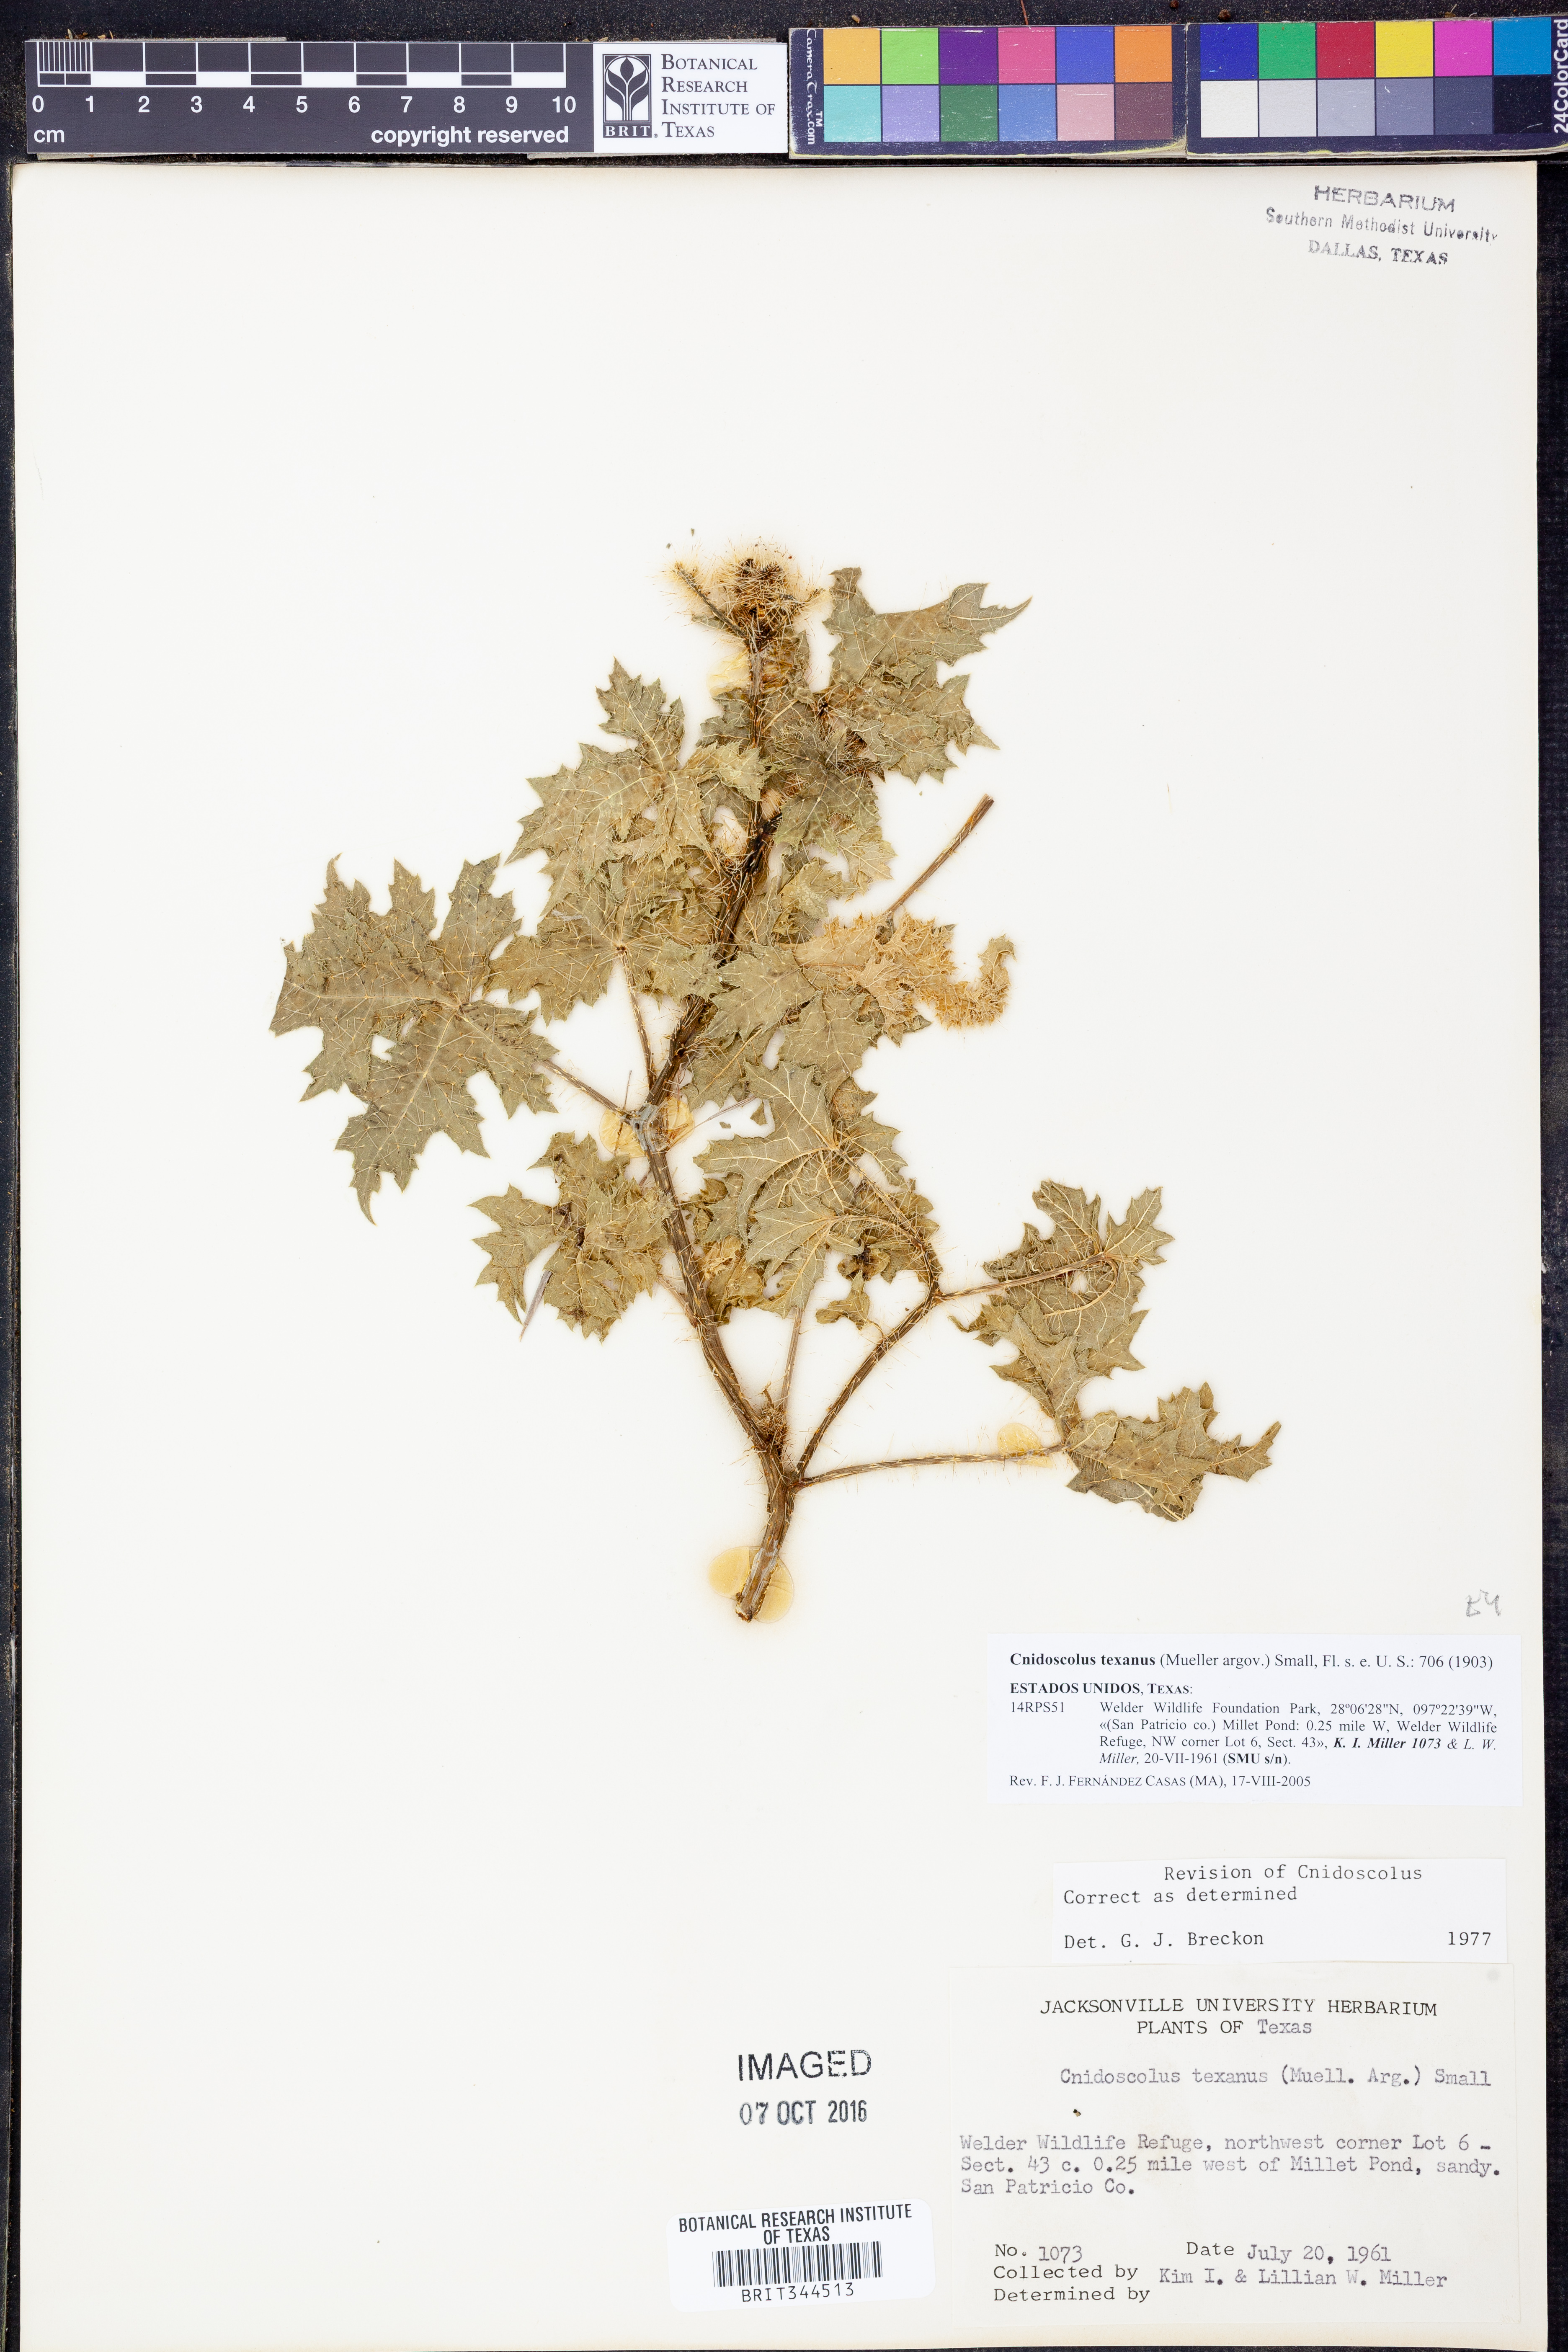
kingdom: Plantae
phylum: Tracheophyta
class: Magnoliopsida
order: Malpighiales
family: Euphorbiaceae
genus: Cnidoscolus
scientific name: Cnidoscolus texanus
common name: Texas bull-nettle
